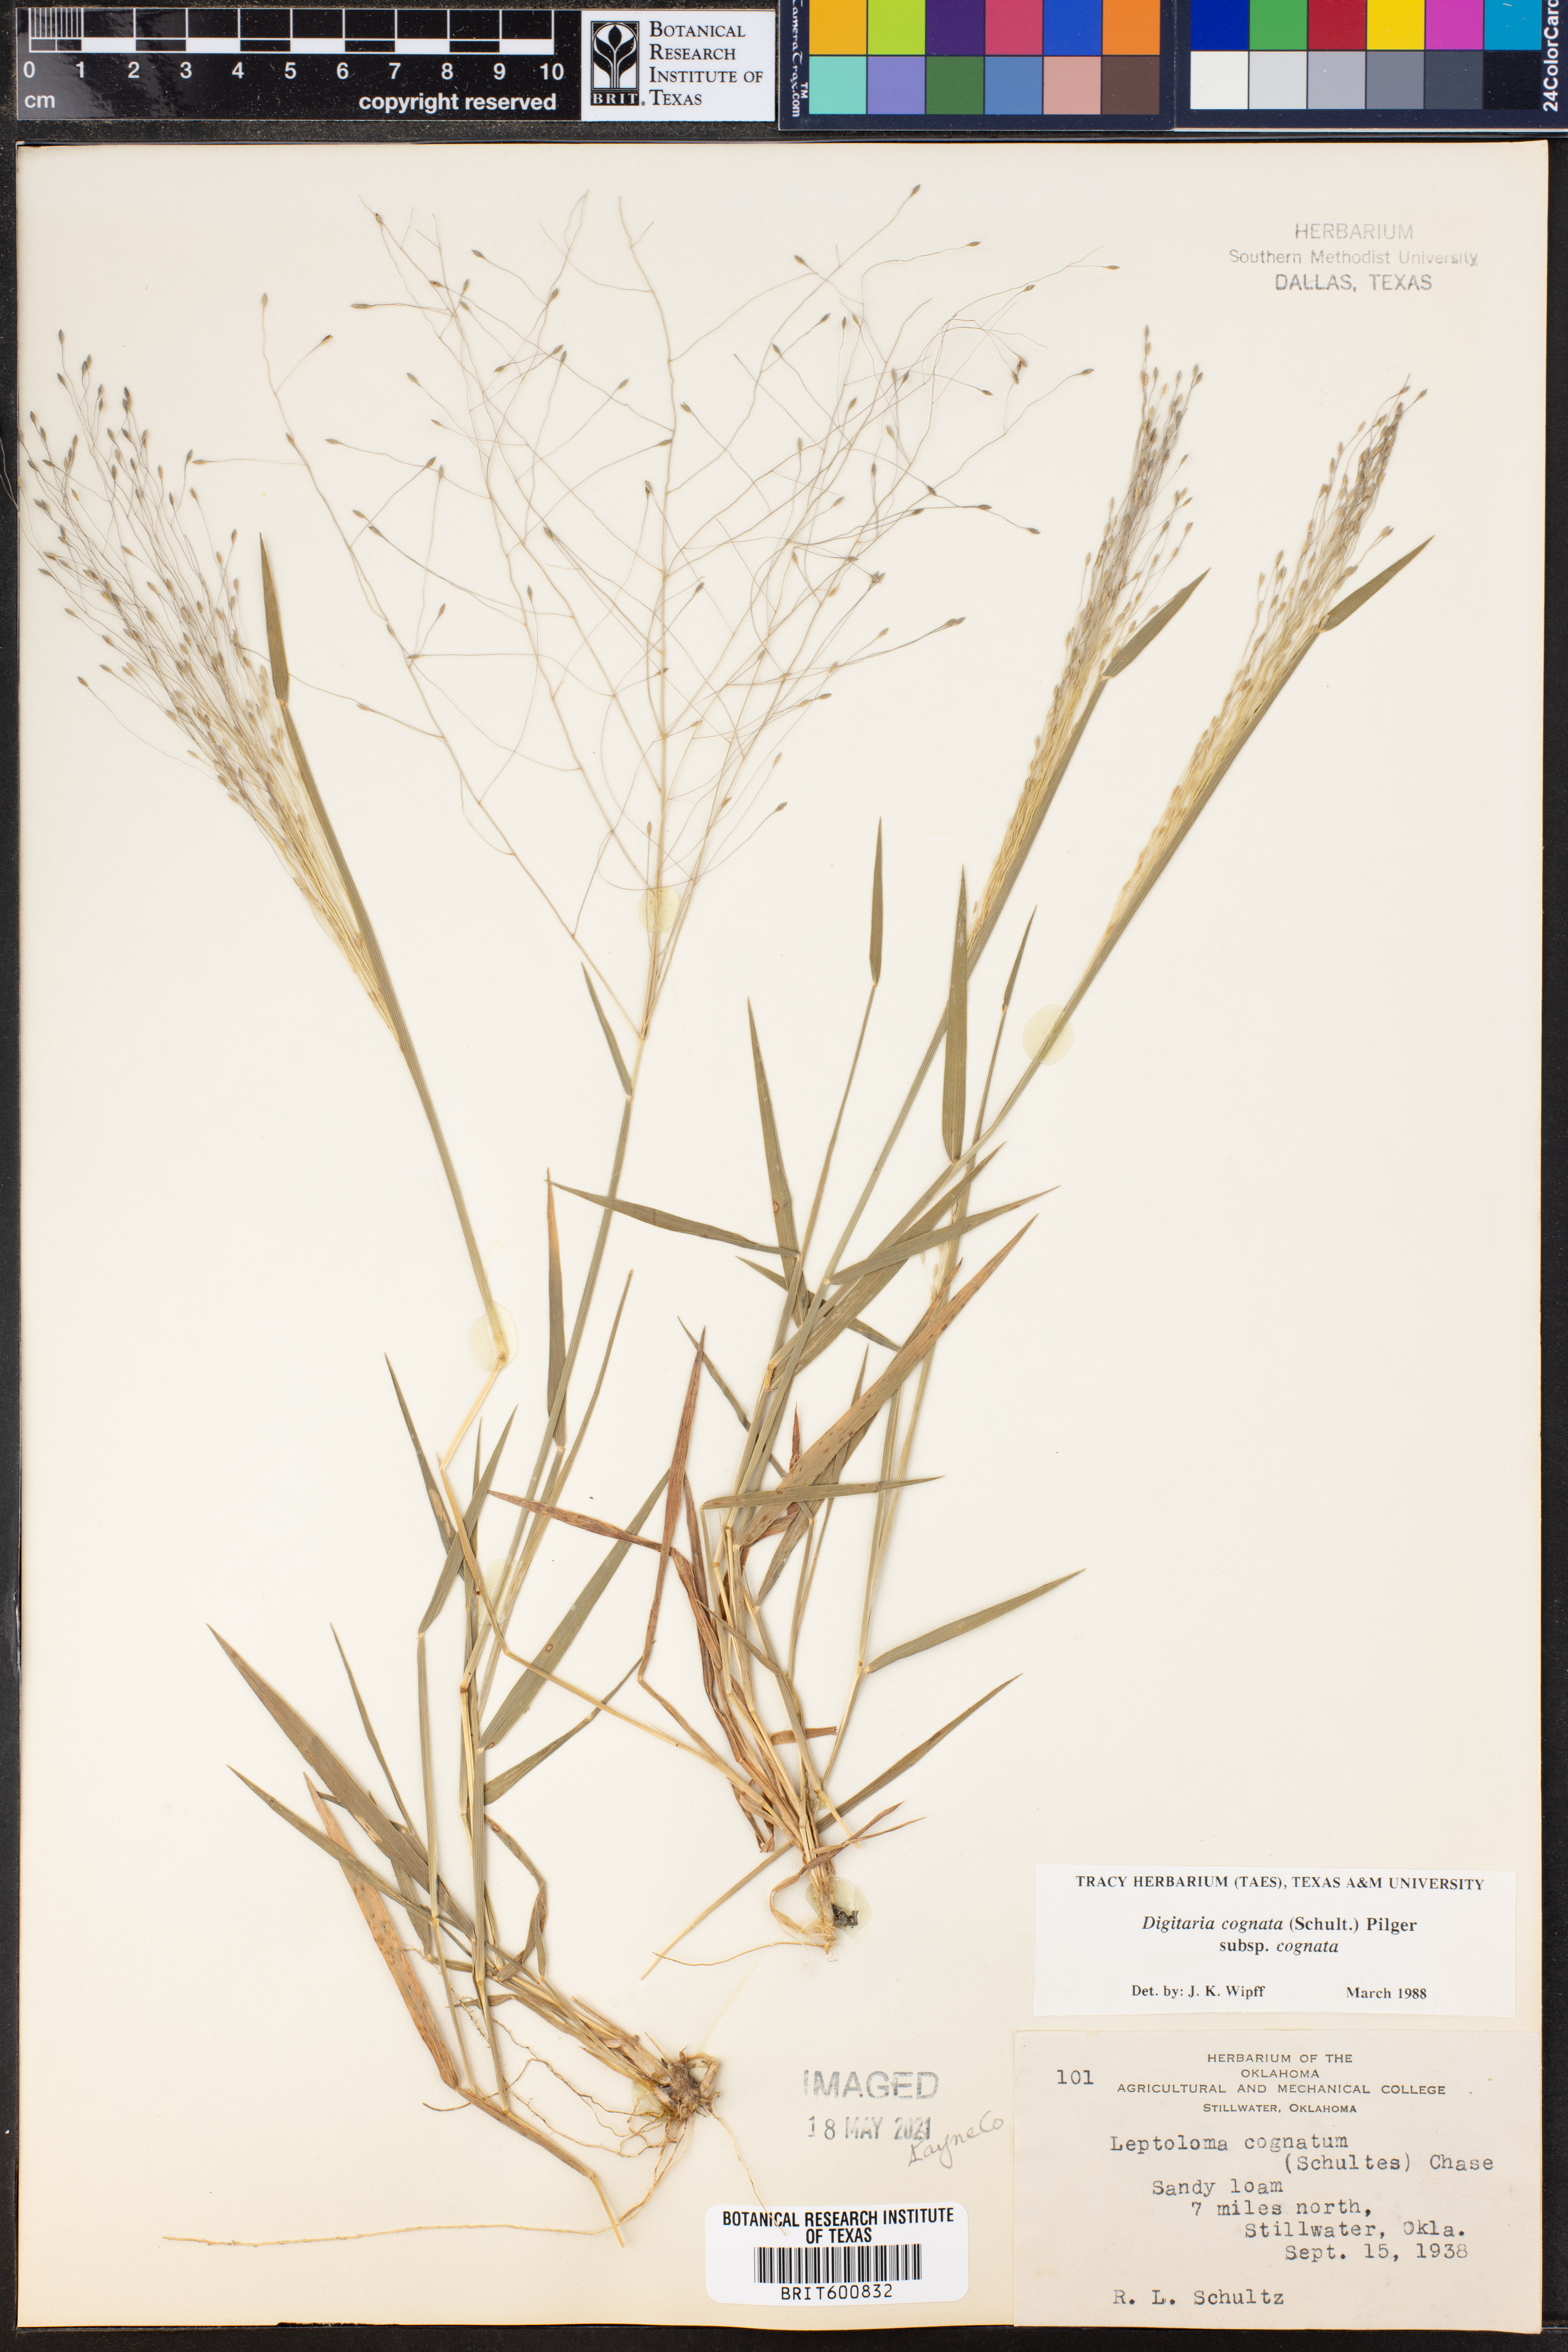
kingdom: Plantae
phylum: Tracheophyta
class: Liliopsida
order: Poales
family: Poaceae
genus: Digitaria
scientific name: Digitaria cognata
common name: Fall witchgrass
